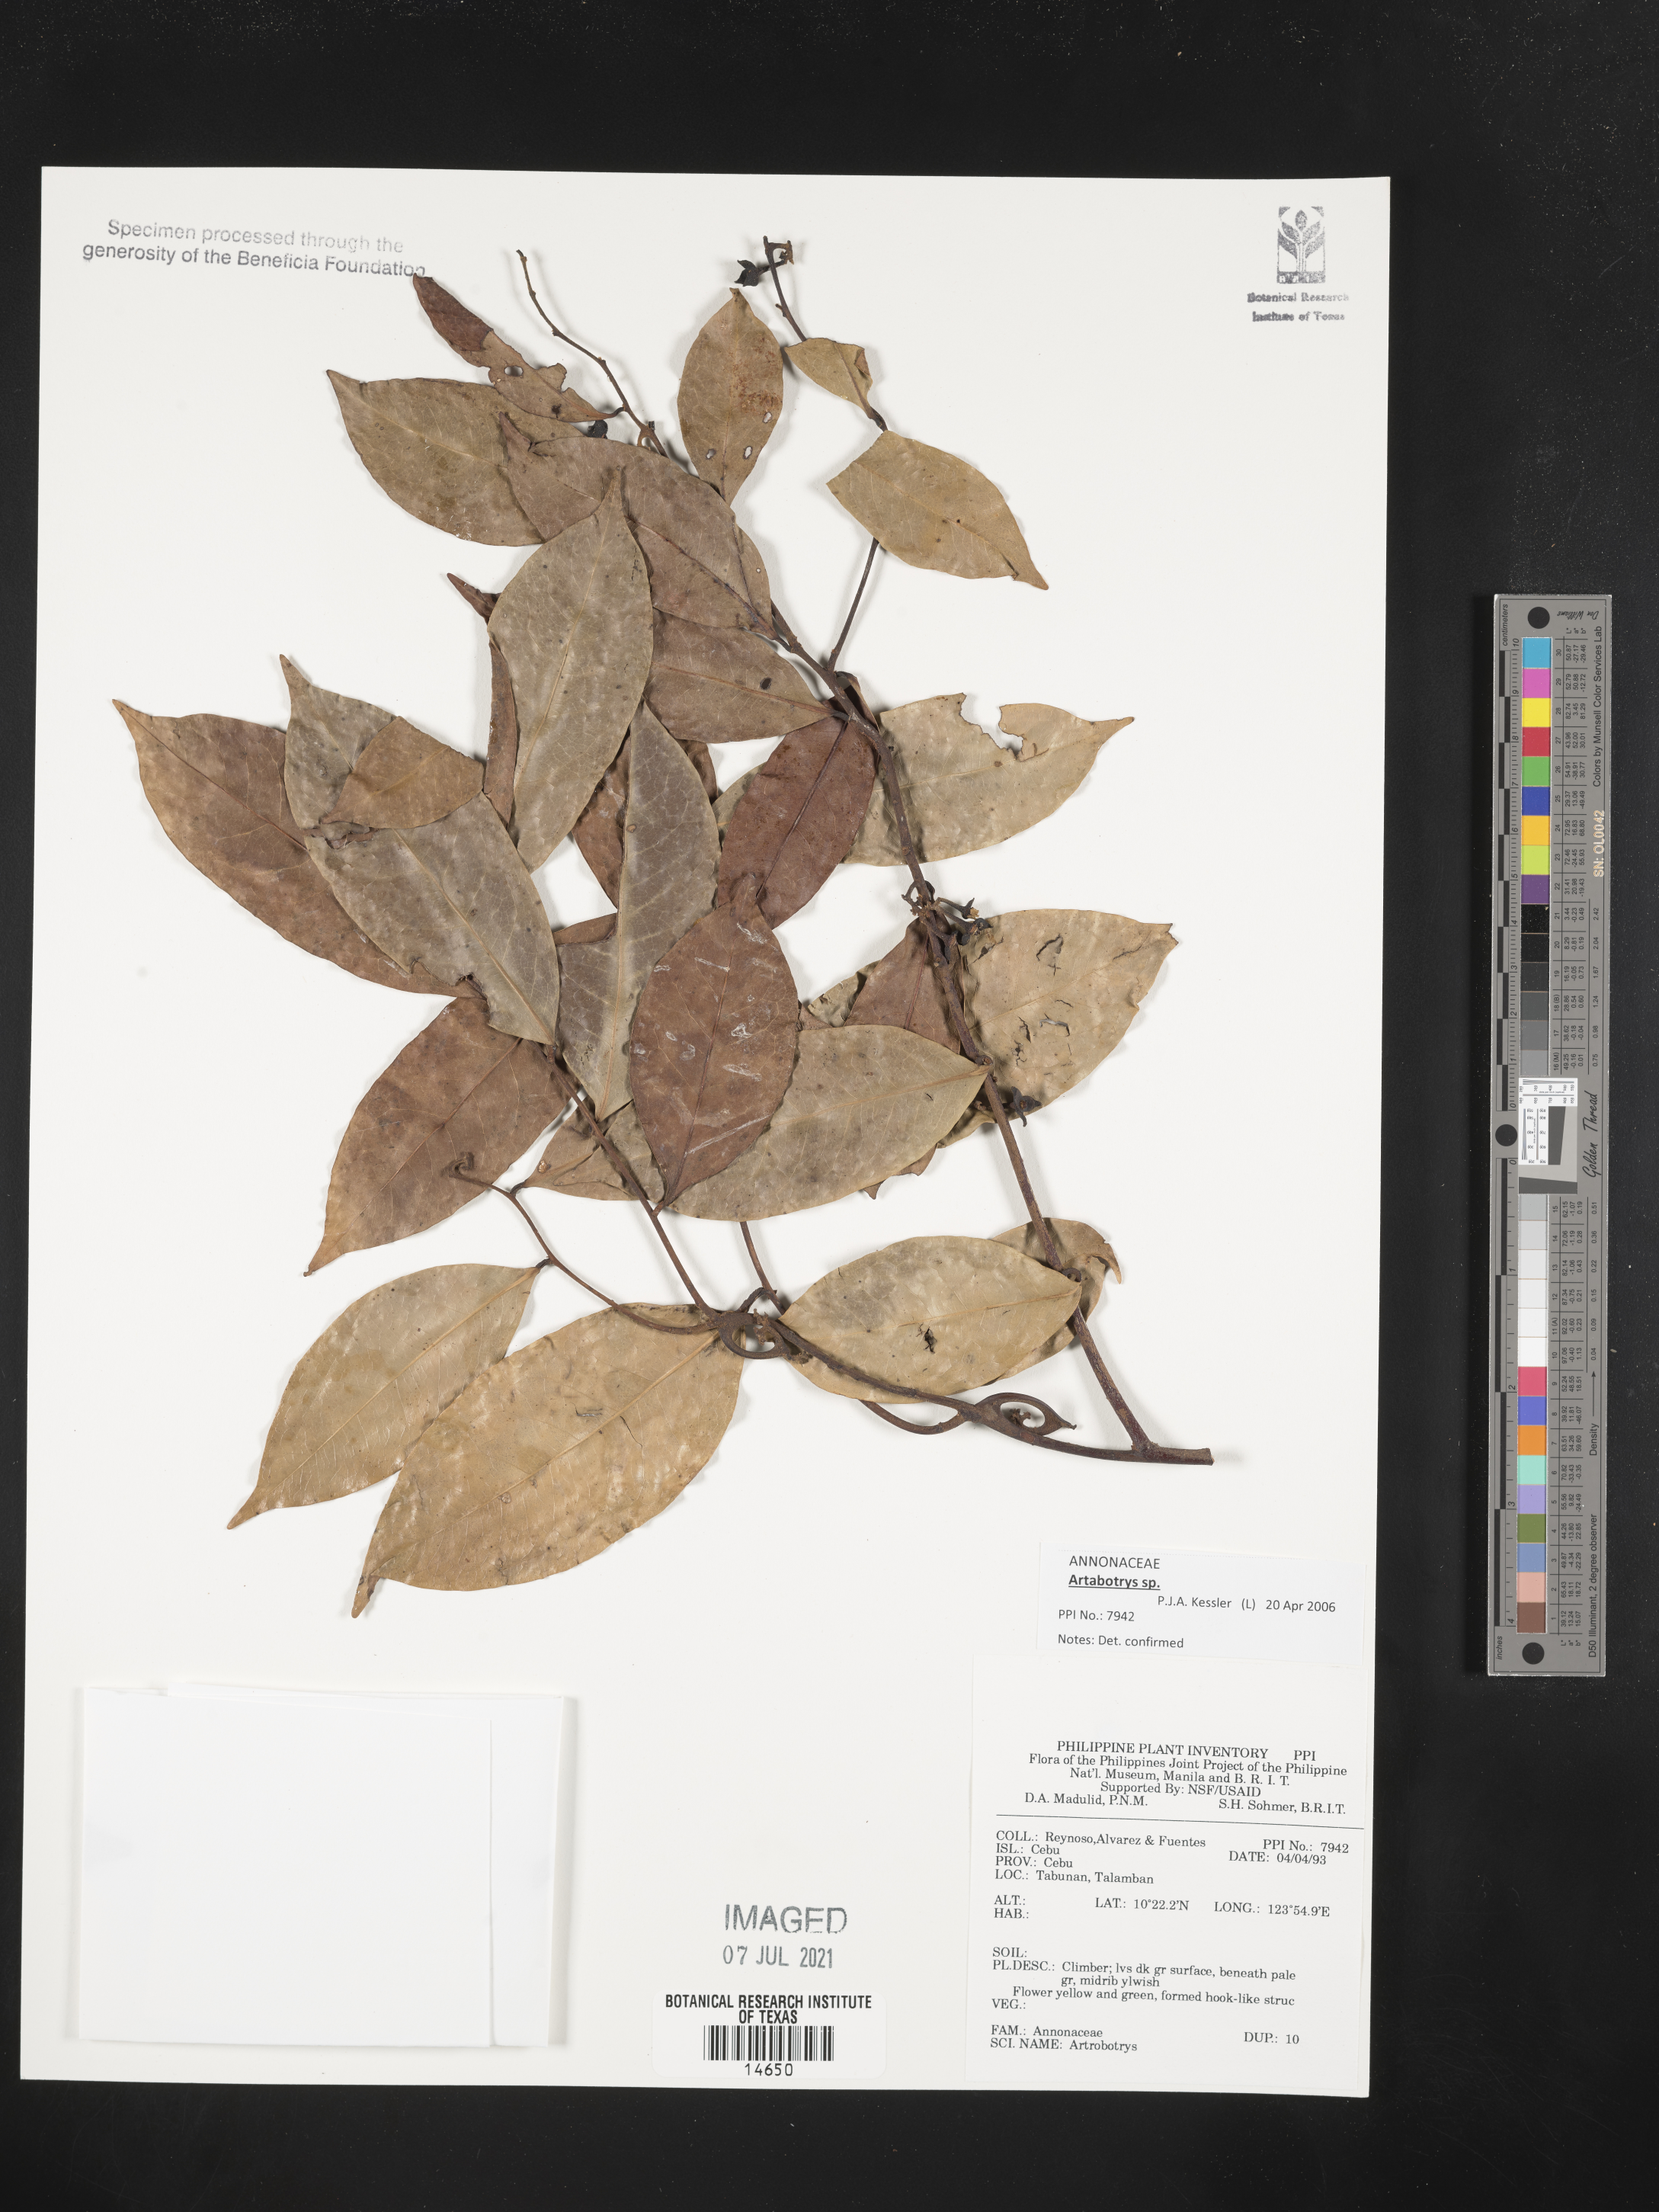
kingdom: Plantae
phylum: Tracheophyta
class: Magnoliopsida
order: Magnoliales
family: Annonaceae
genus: Artabotrys
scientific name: Artabotrys
